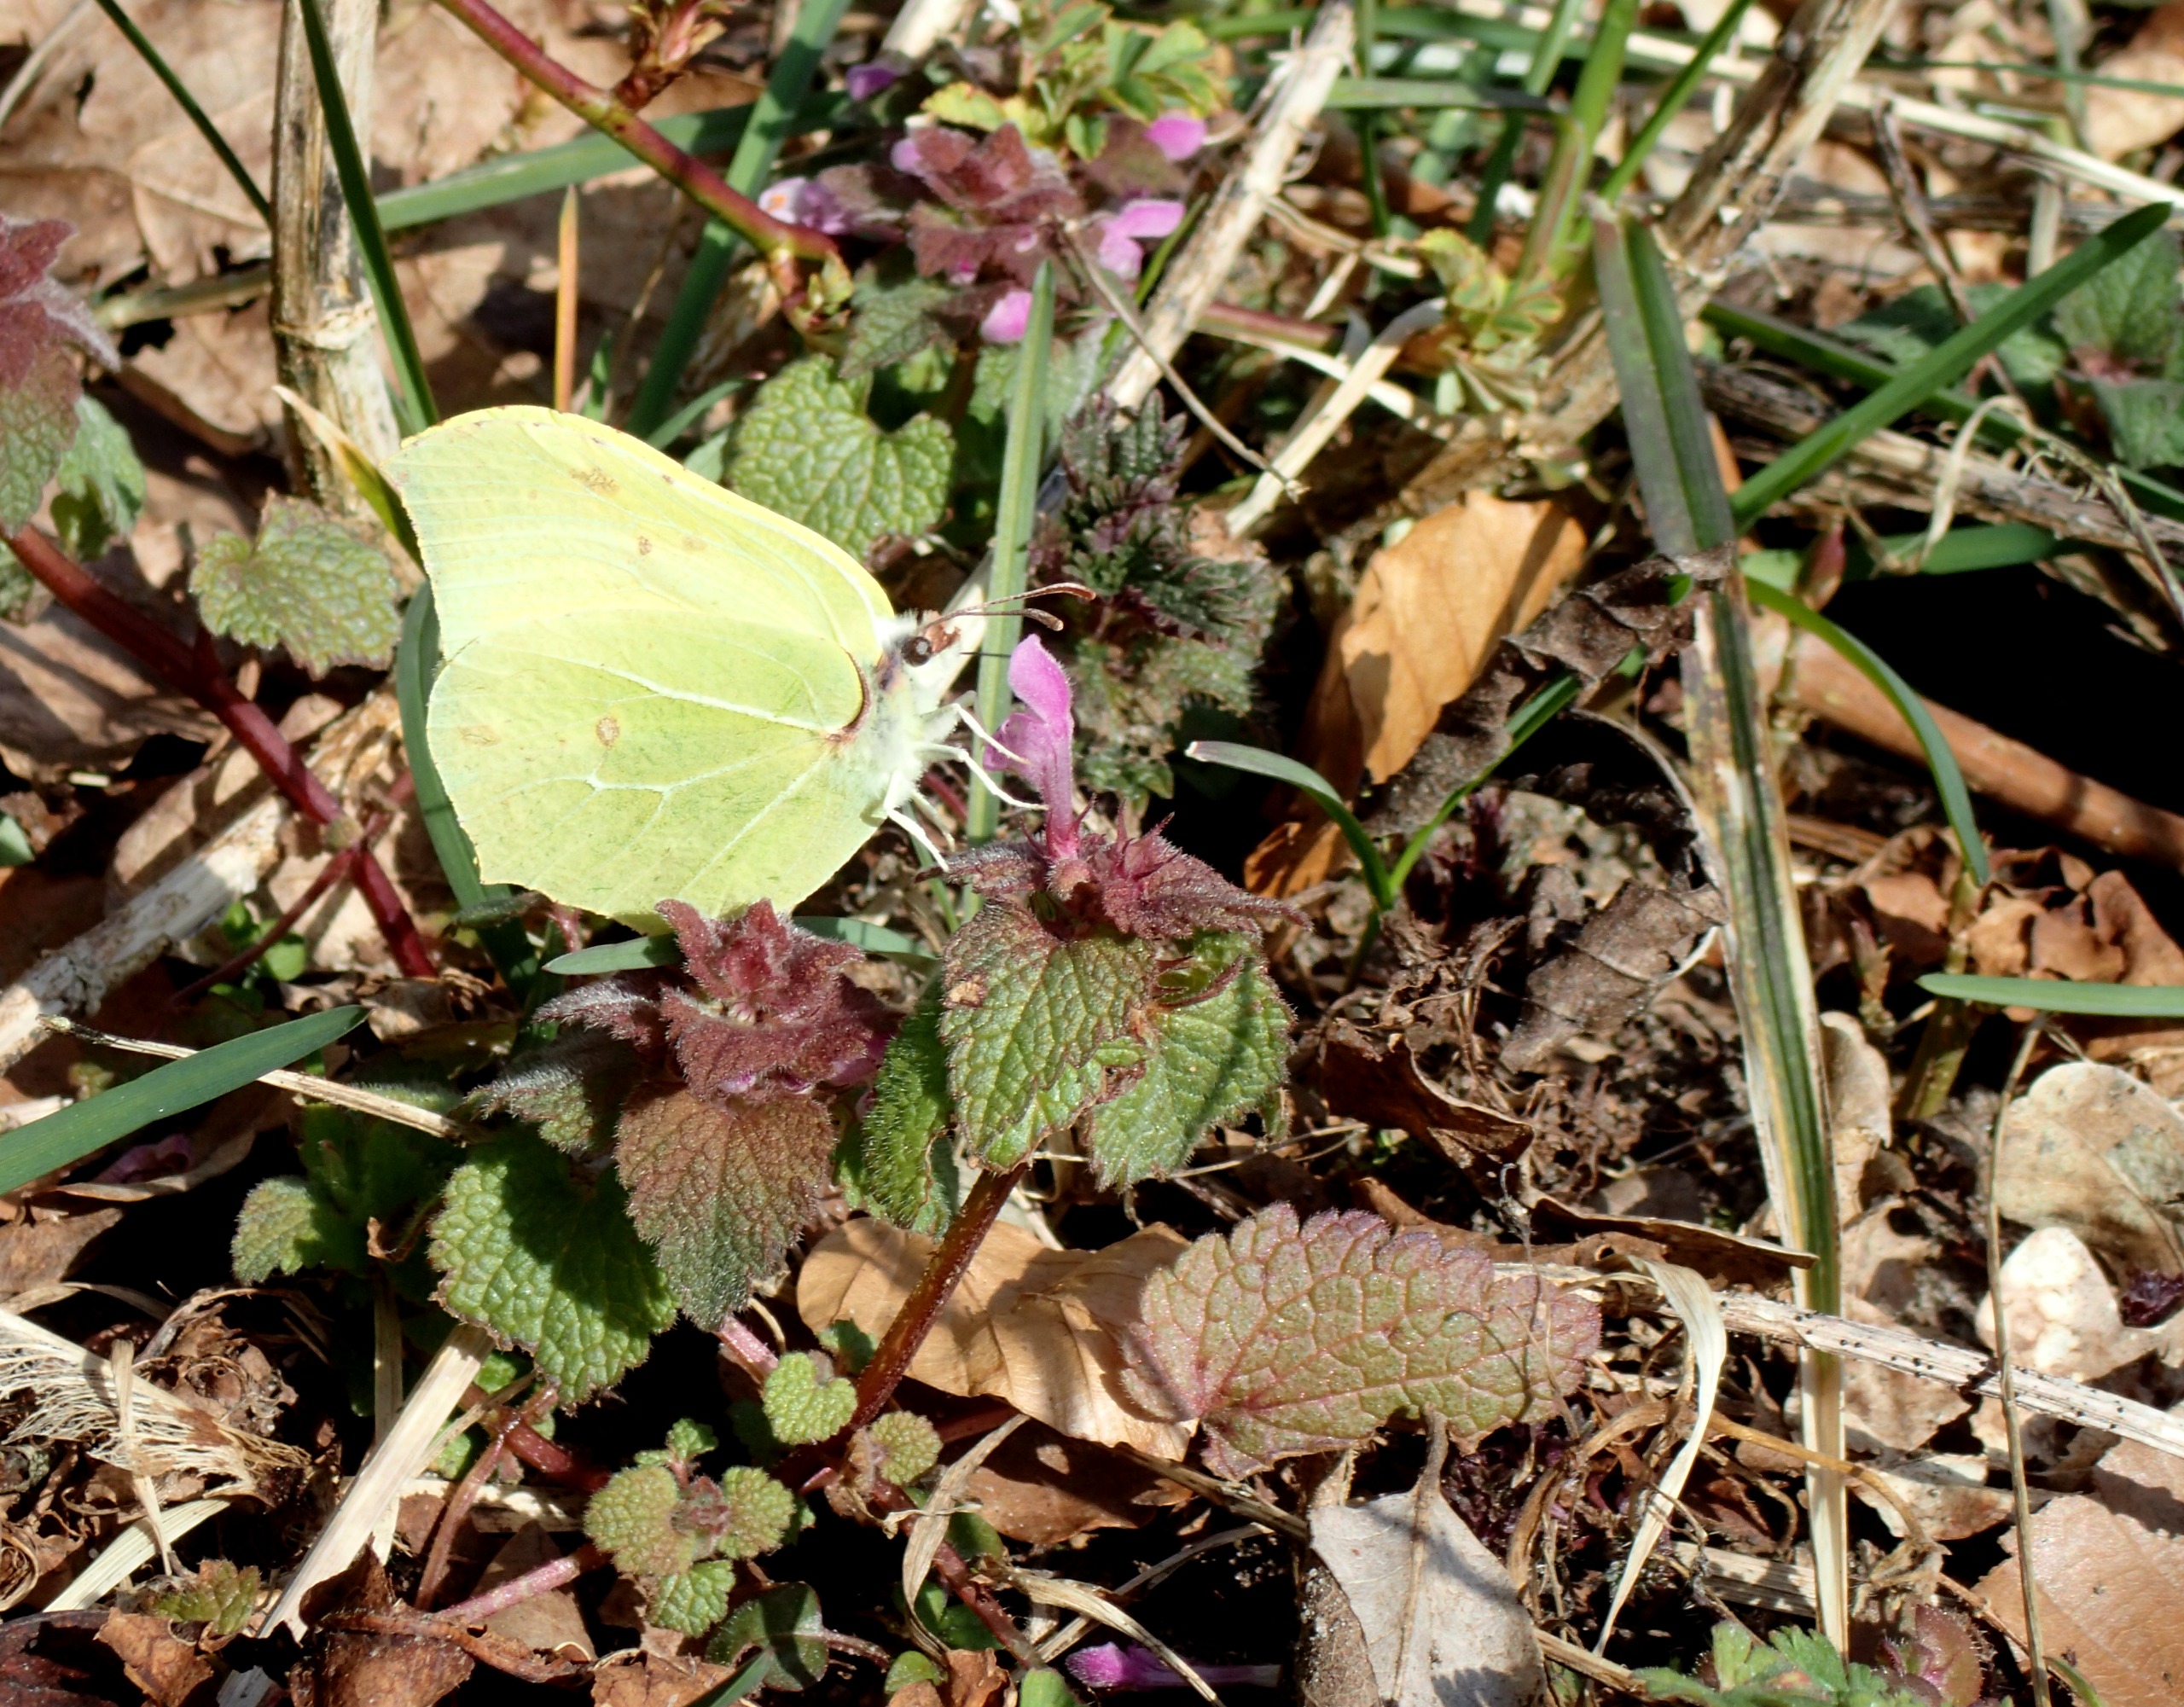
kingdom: Animalia
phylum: Arthropoda
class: Insecta
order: Lepidoptera
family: Pieridae
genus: Gonepteryx
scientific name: Gonepteryx rhamni
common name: Citronsommerfugl
